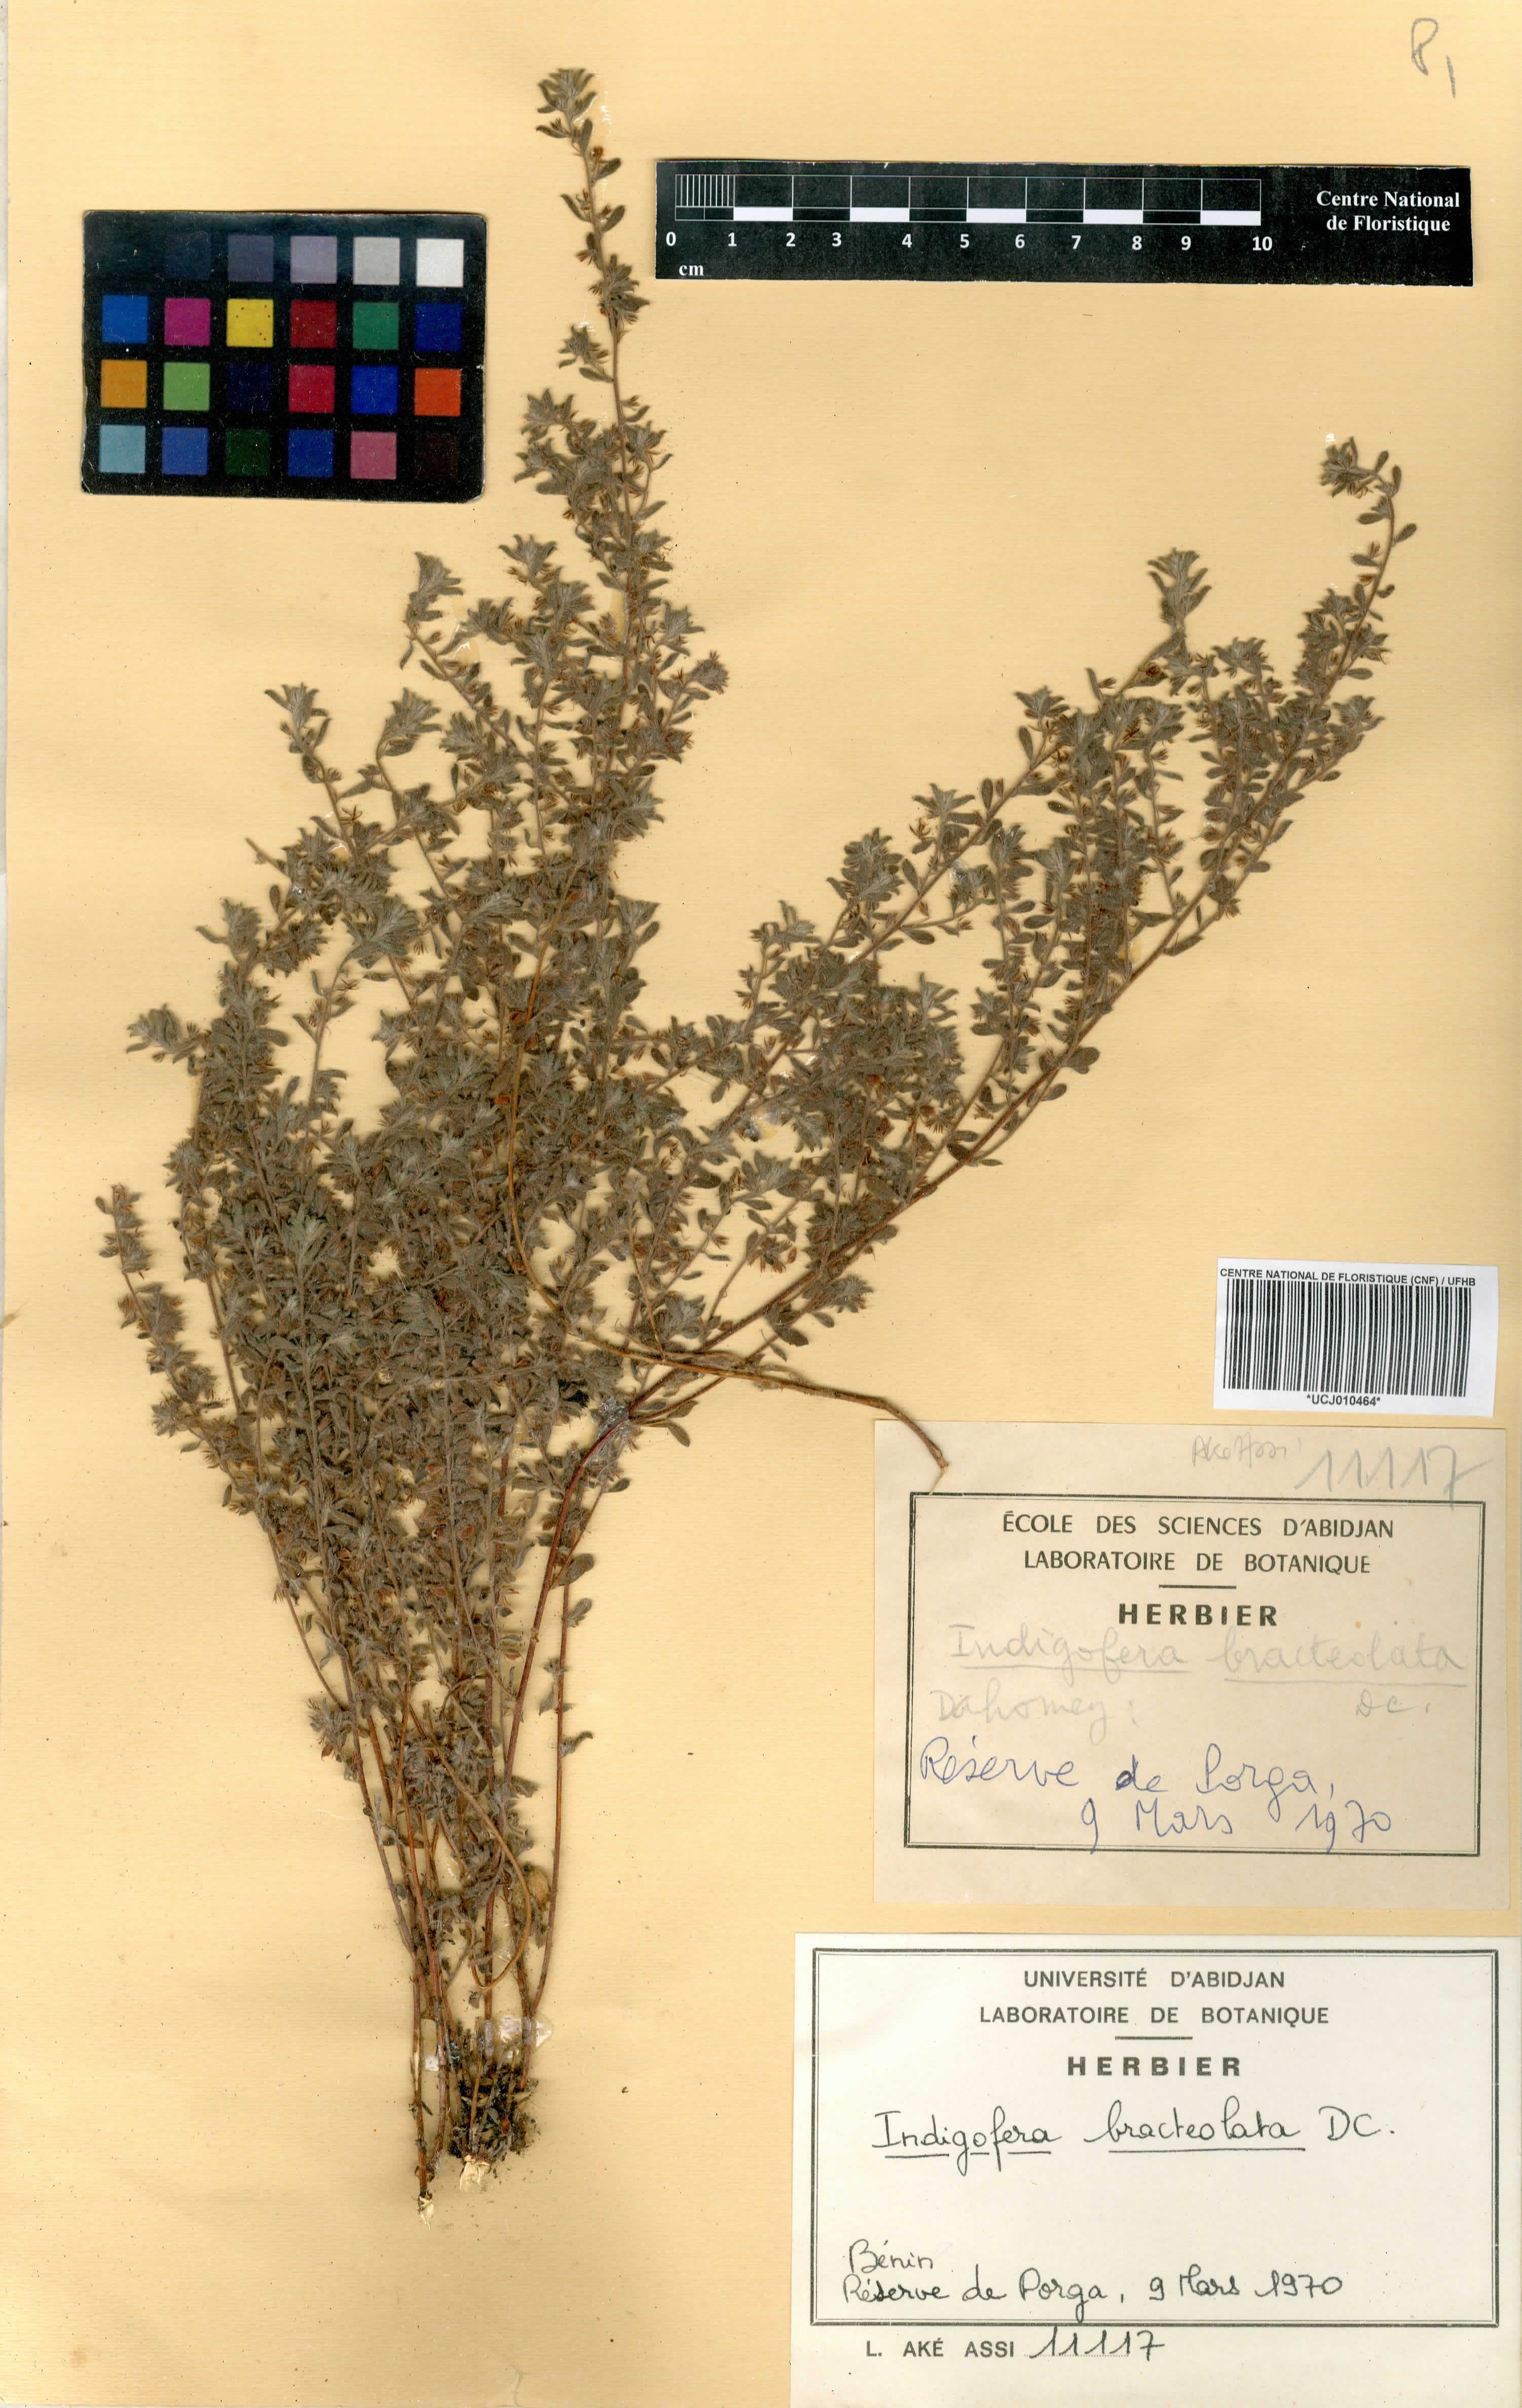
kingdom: Plantae
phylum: Tracheophyta
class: Magnoliopsida
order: Fabales
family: Fabaceae
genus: Indigofera
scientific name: Indigofera bracteolata
